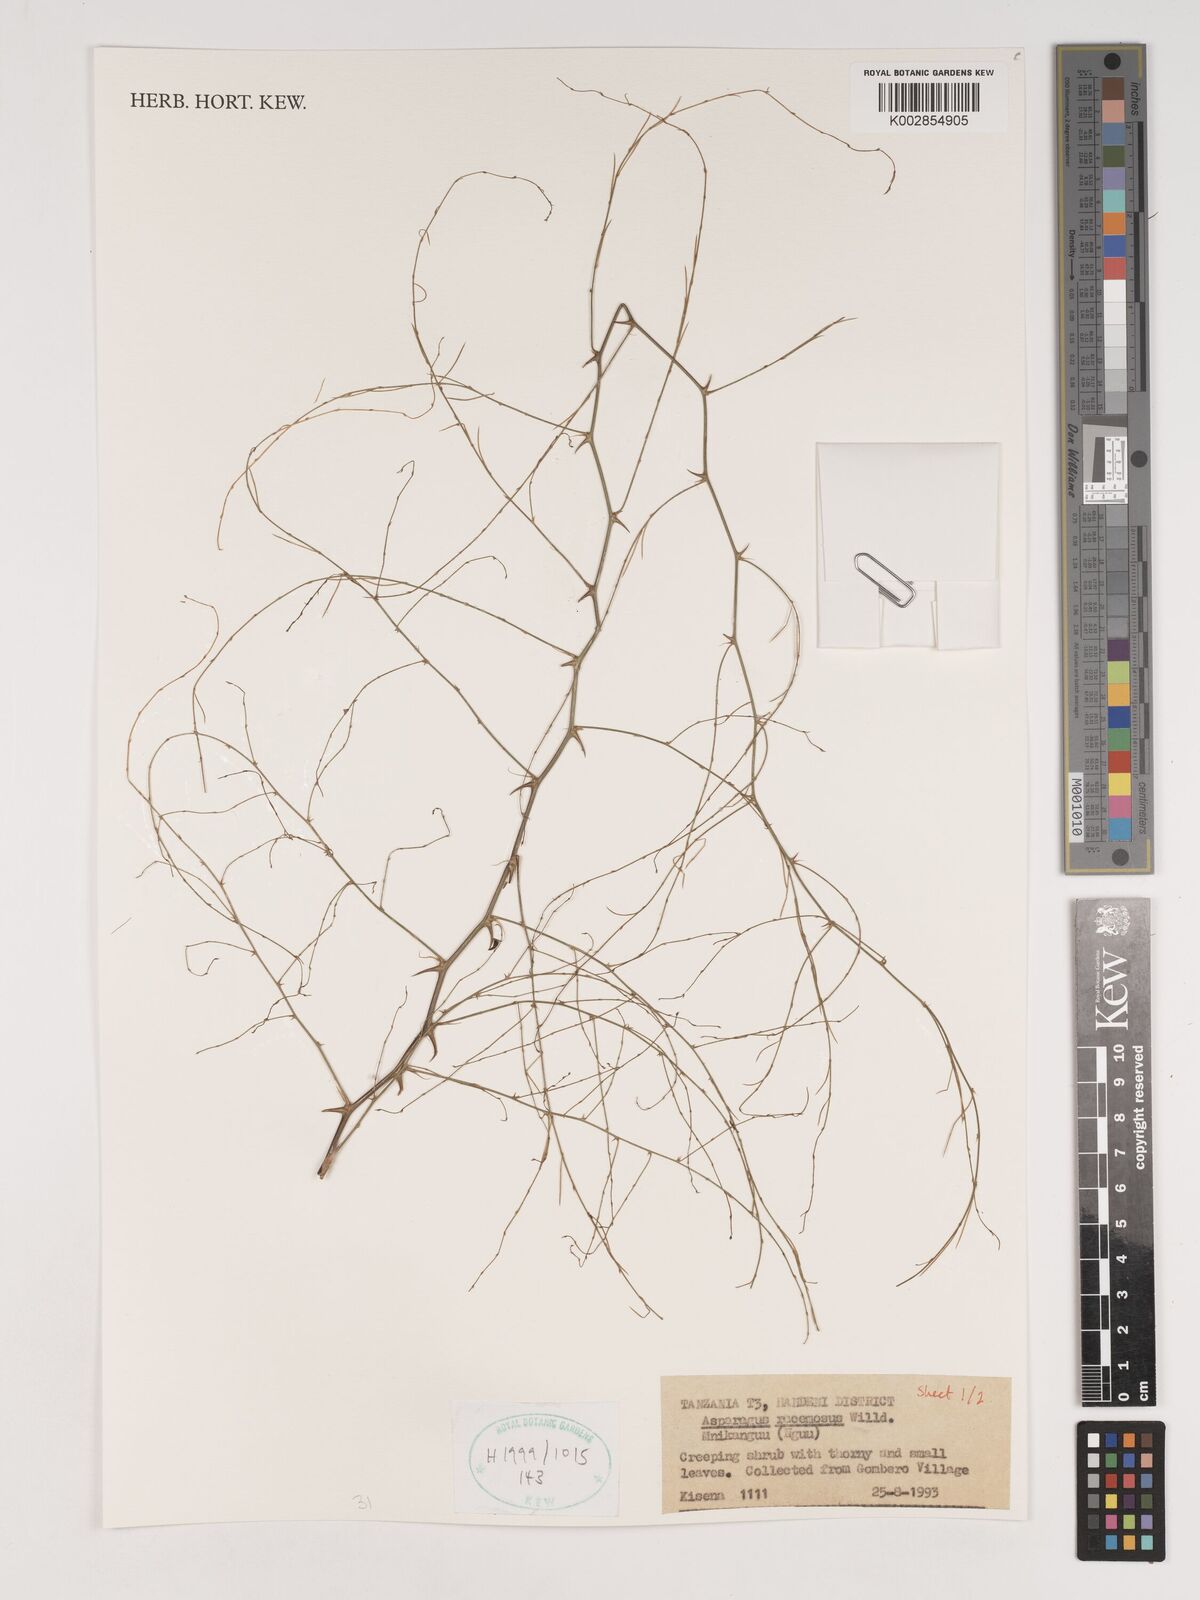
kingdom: Plantae
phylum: Tracheophyta
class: Liliopsida
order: Asparagales
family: Asparagaceae
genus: Asparagus
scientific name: Asparagus racemosus
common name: Asparagus-fern
